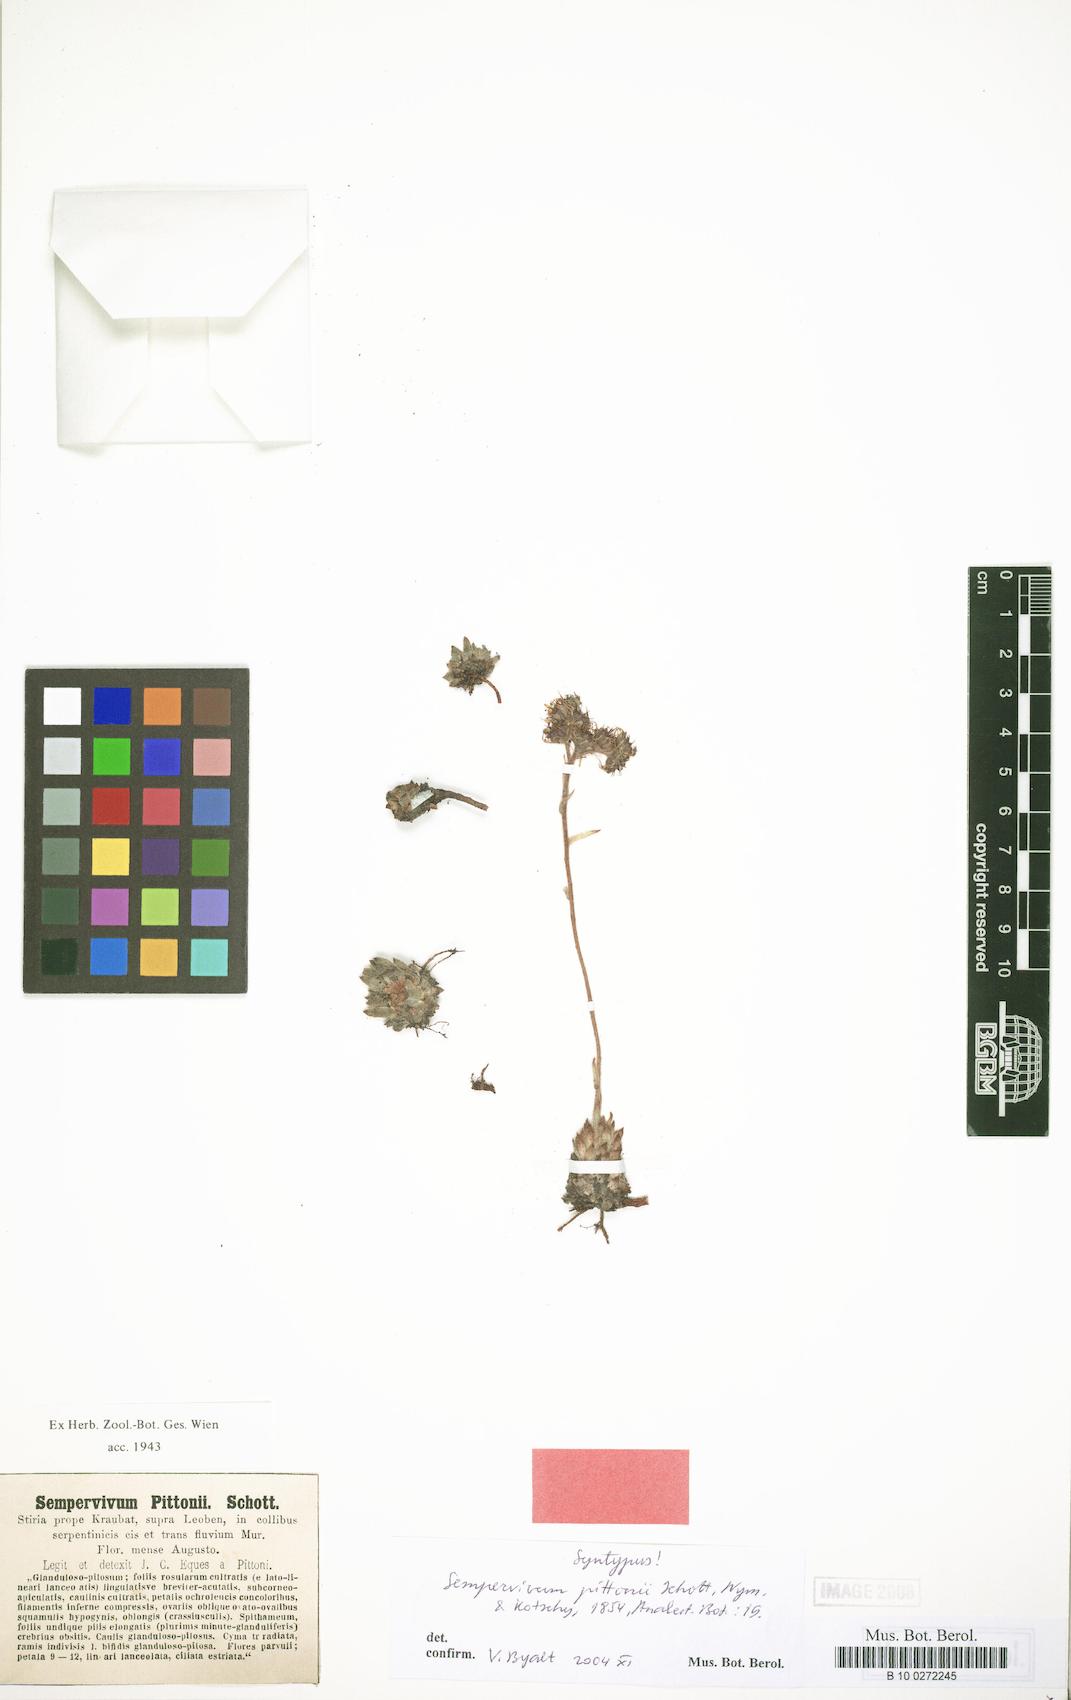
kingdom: Plantae
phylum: Tracheophyta
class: Magnoliopsida
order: Saxifragales
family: Crassulaceae
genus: Sempervivum
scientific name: Sempervivum pittonii
